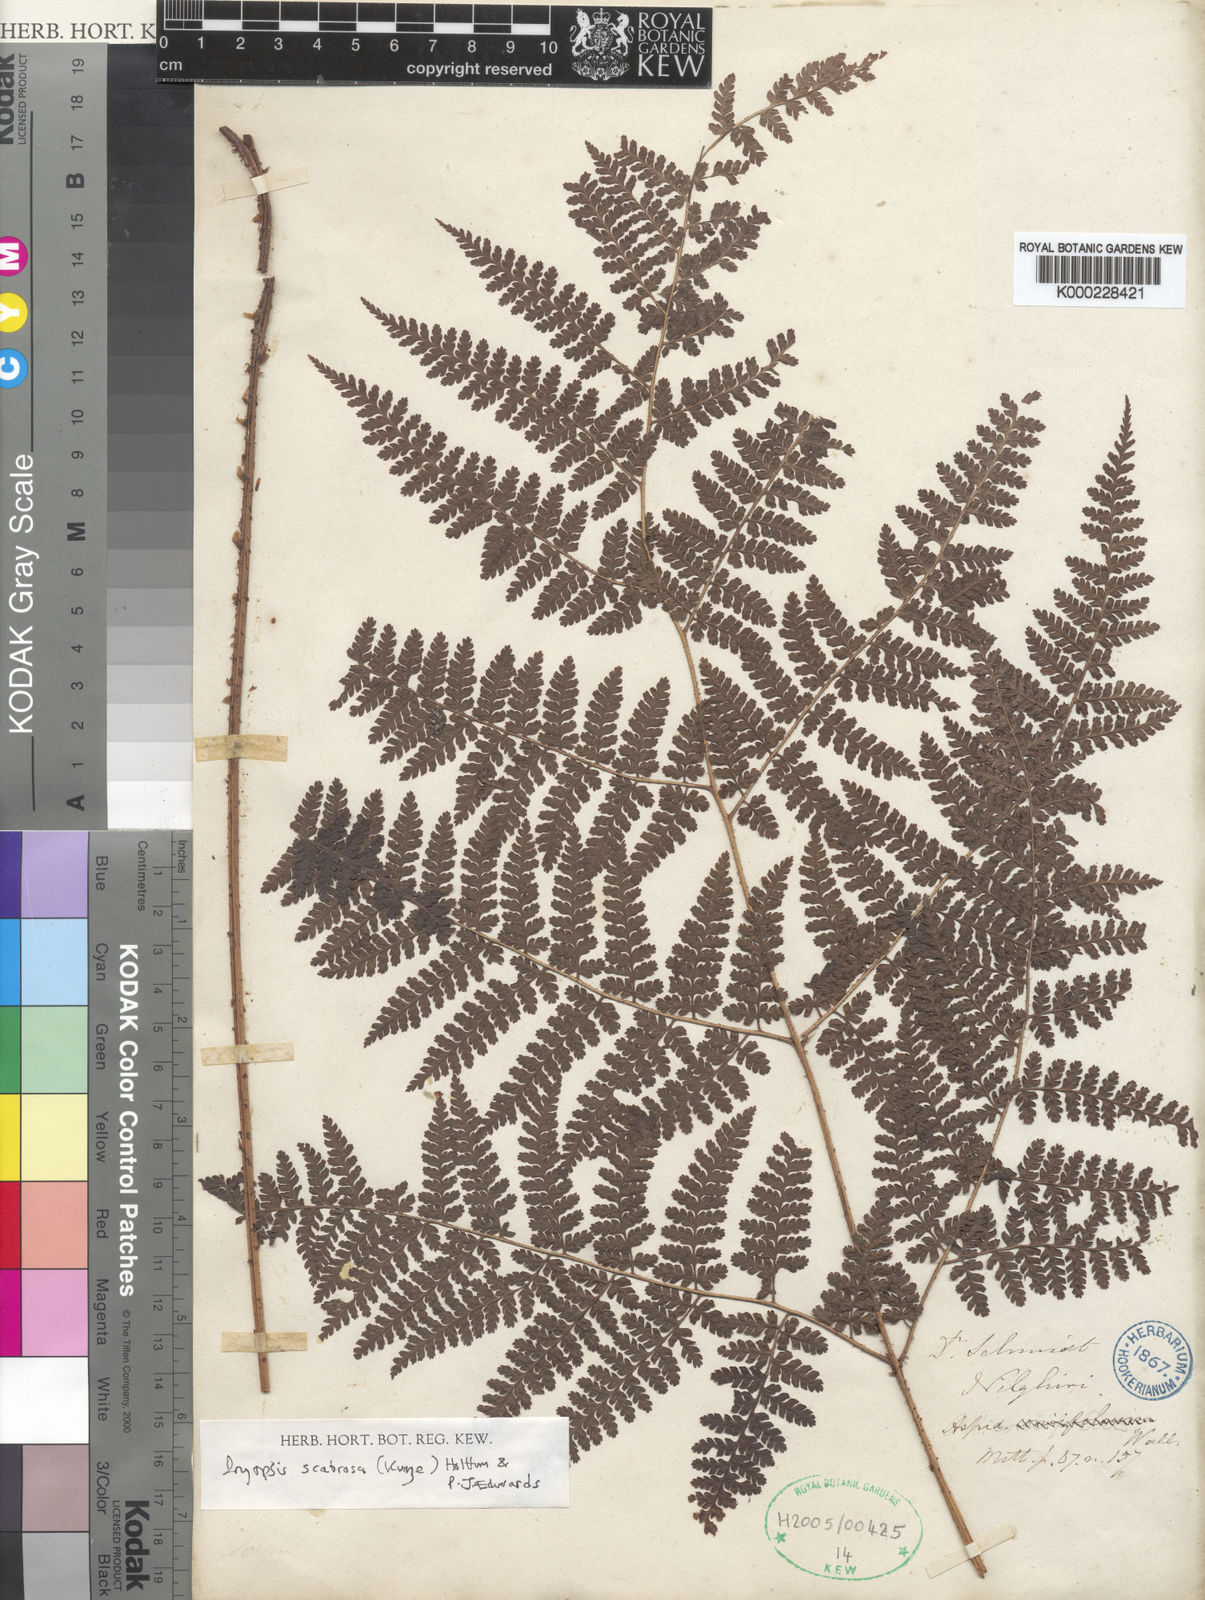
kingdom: Plantae
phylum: Tracheophyta
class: Polypodiopsida
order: Polypodiales
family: Dryopteridaceae
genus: Dryopteris
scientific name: Dryopteris scabrosa
